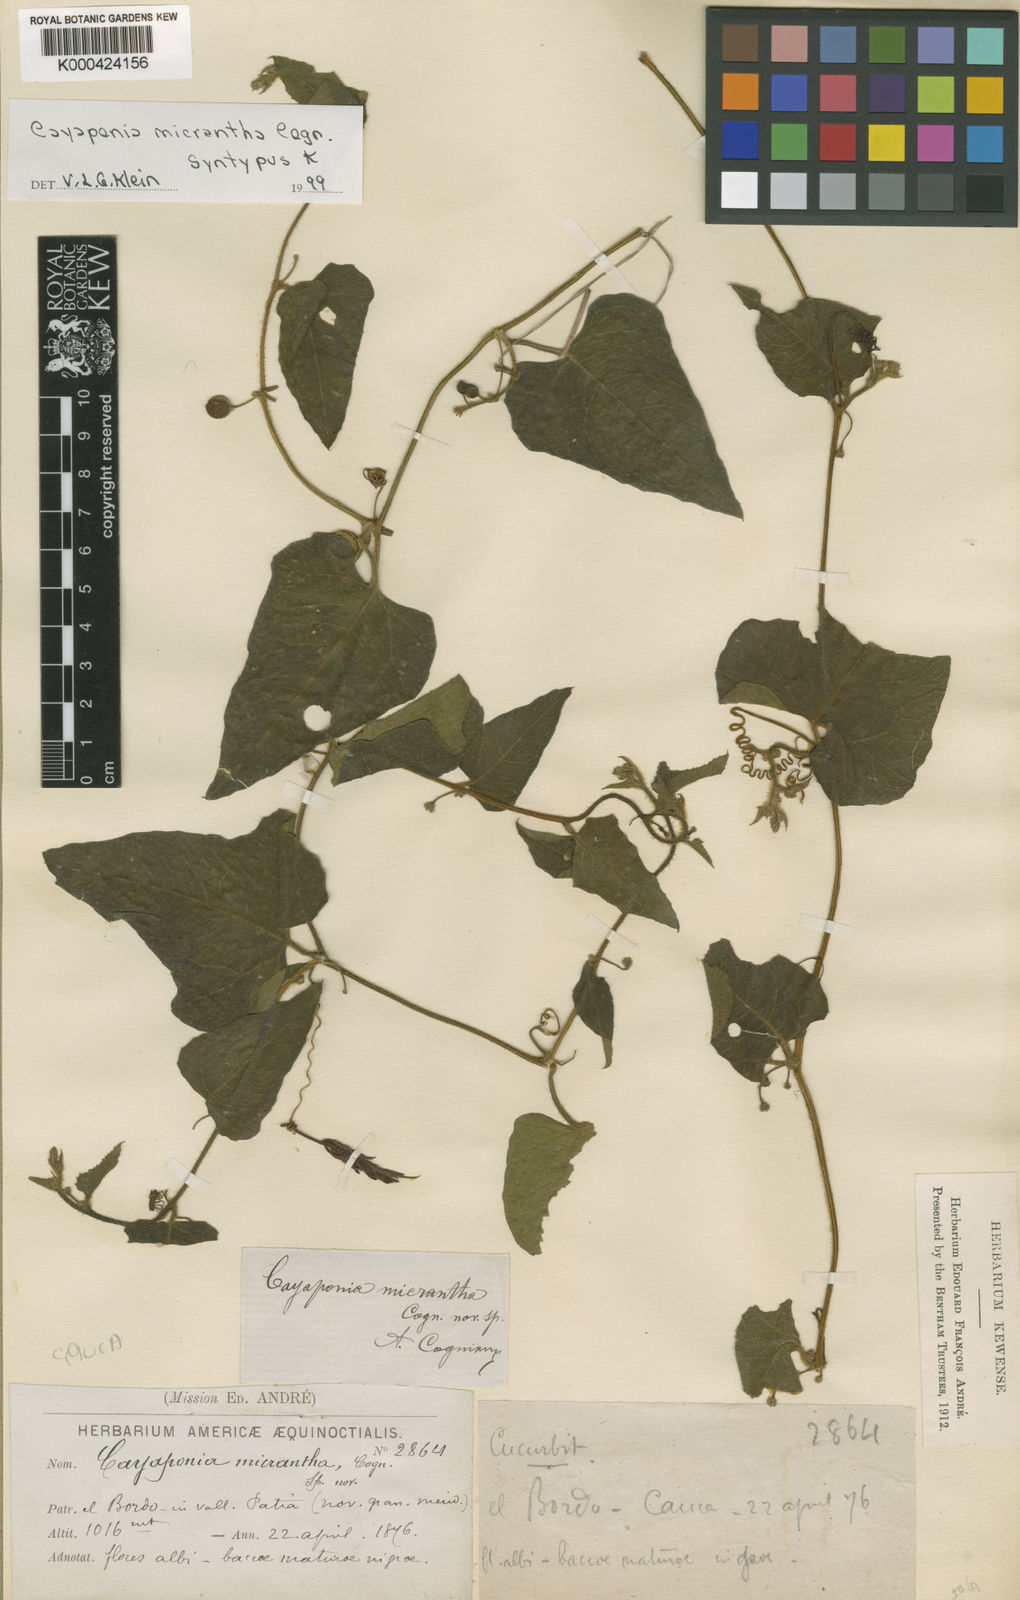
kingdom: Plantae
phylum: Tracheophyta
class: Magnoliopsida
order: Cucurbitales
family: Cucurbitaceae
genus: Cayaponia
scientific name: Cayaponia triangularis
